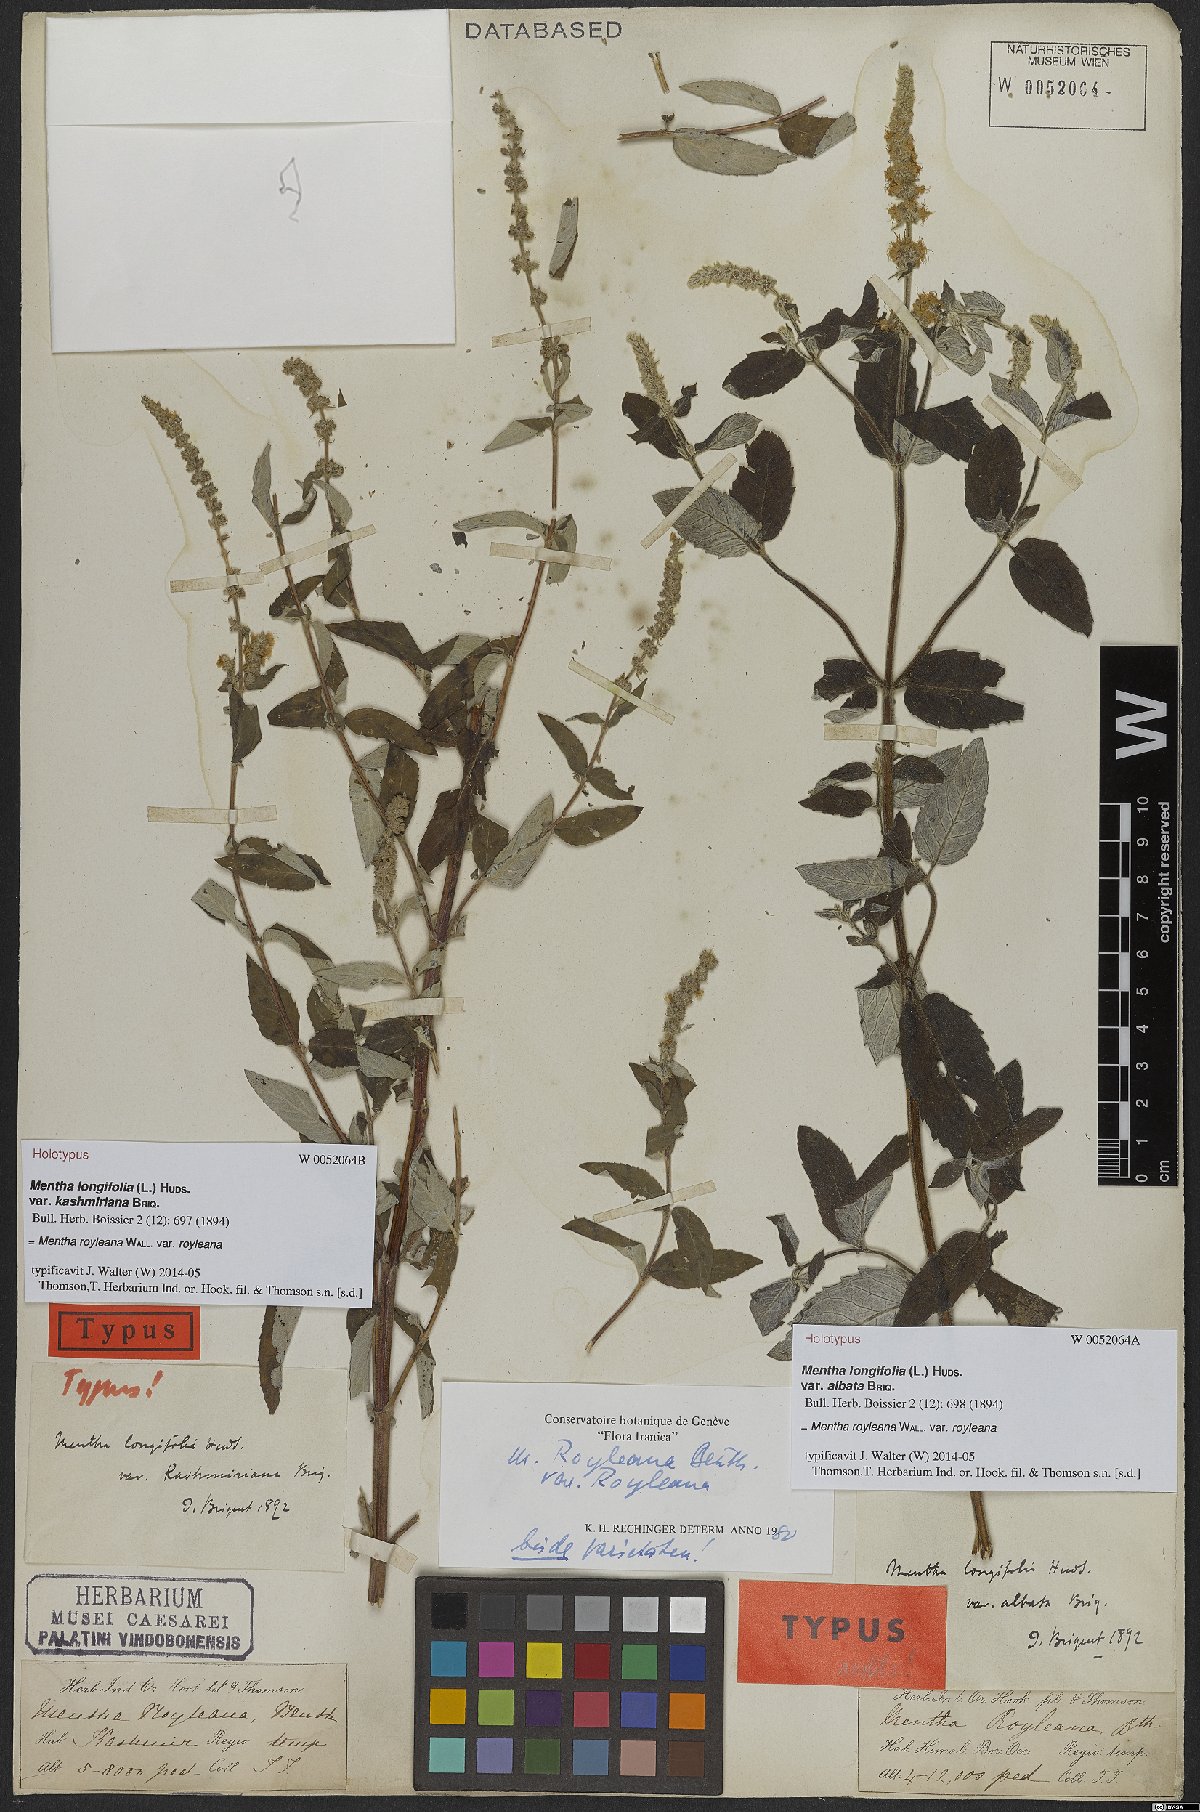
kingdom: Plantae
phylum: Tracheophyta
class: Magnoliopsida
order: Lamiales
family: Lamiaceae
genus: Mentha
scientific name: Mentha royleana
